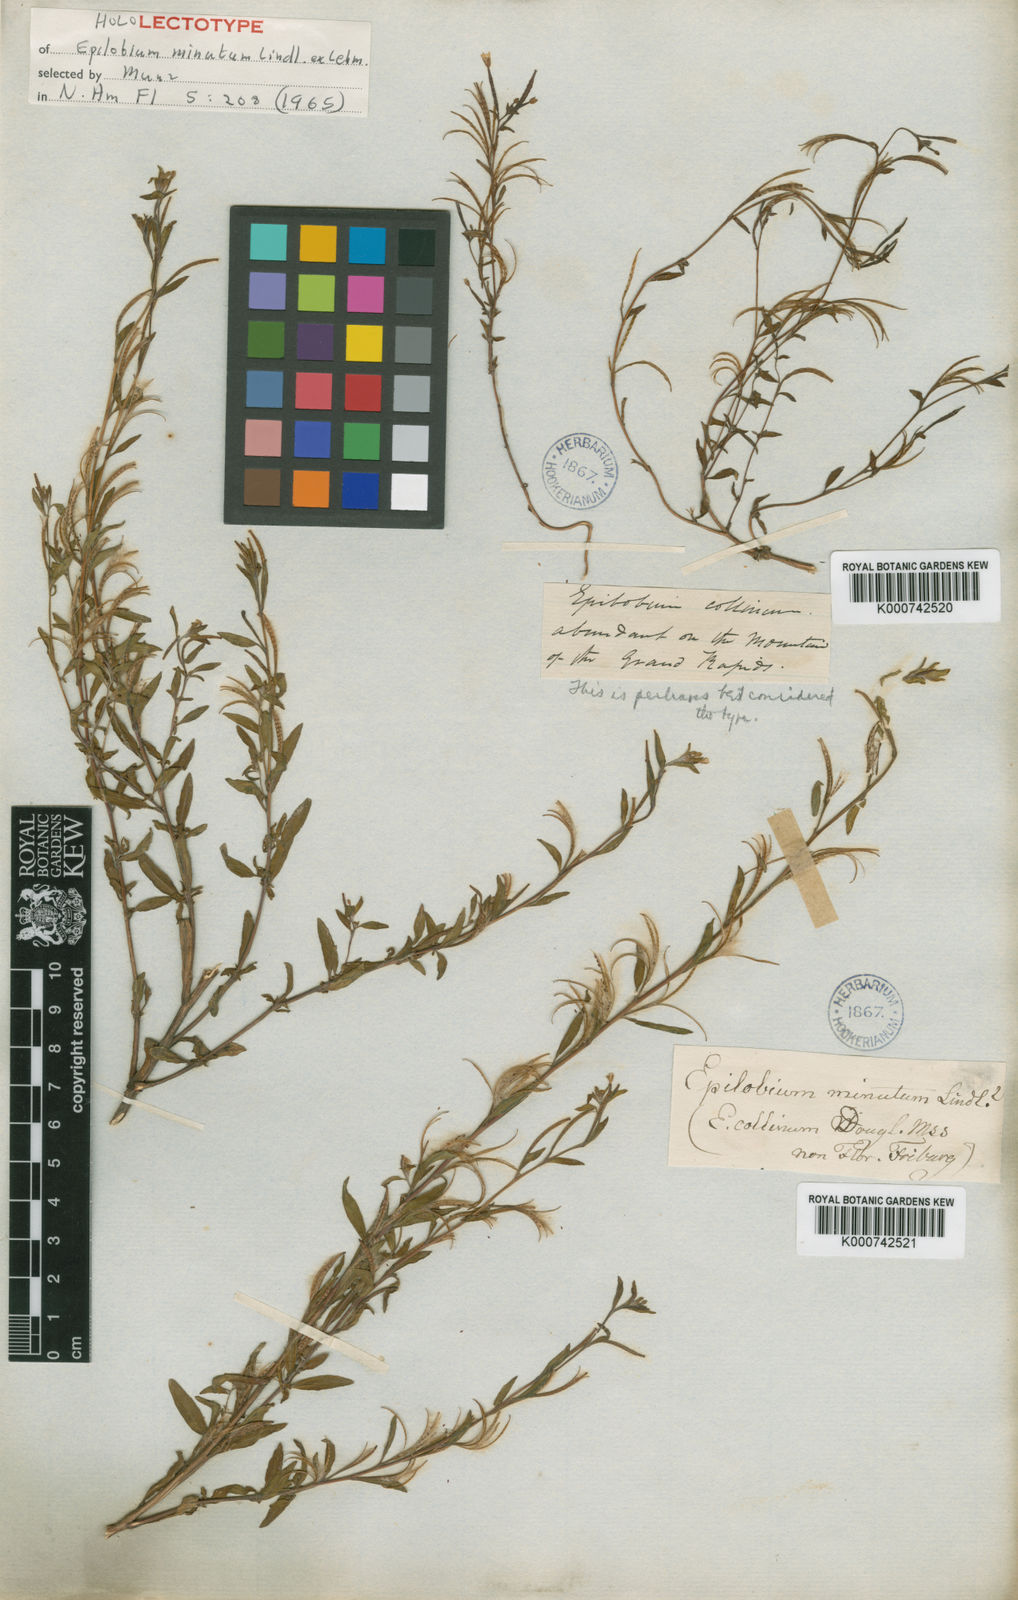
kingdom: Plantae
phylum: Tracheophyta
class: Magnoliopsida
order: Myrtales
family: Onagraceae
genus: Epilobium
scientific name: Epilobium
